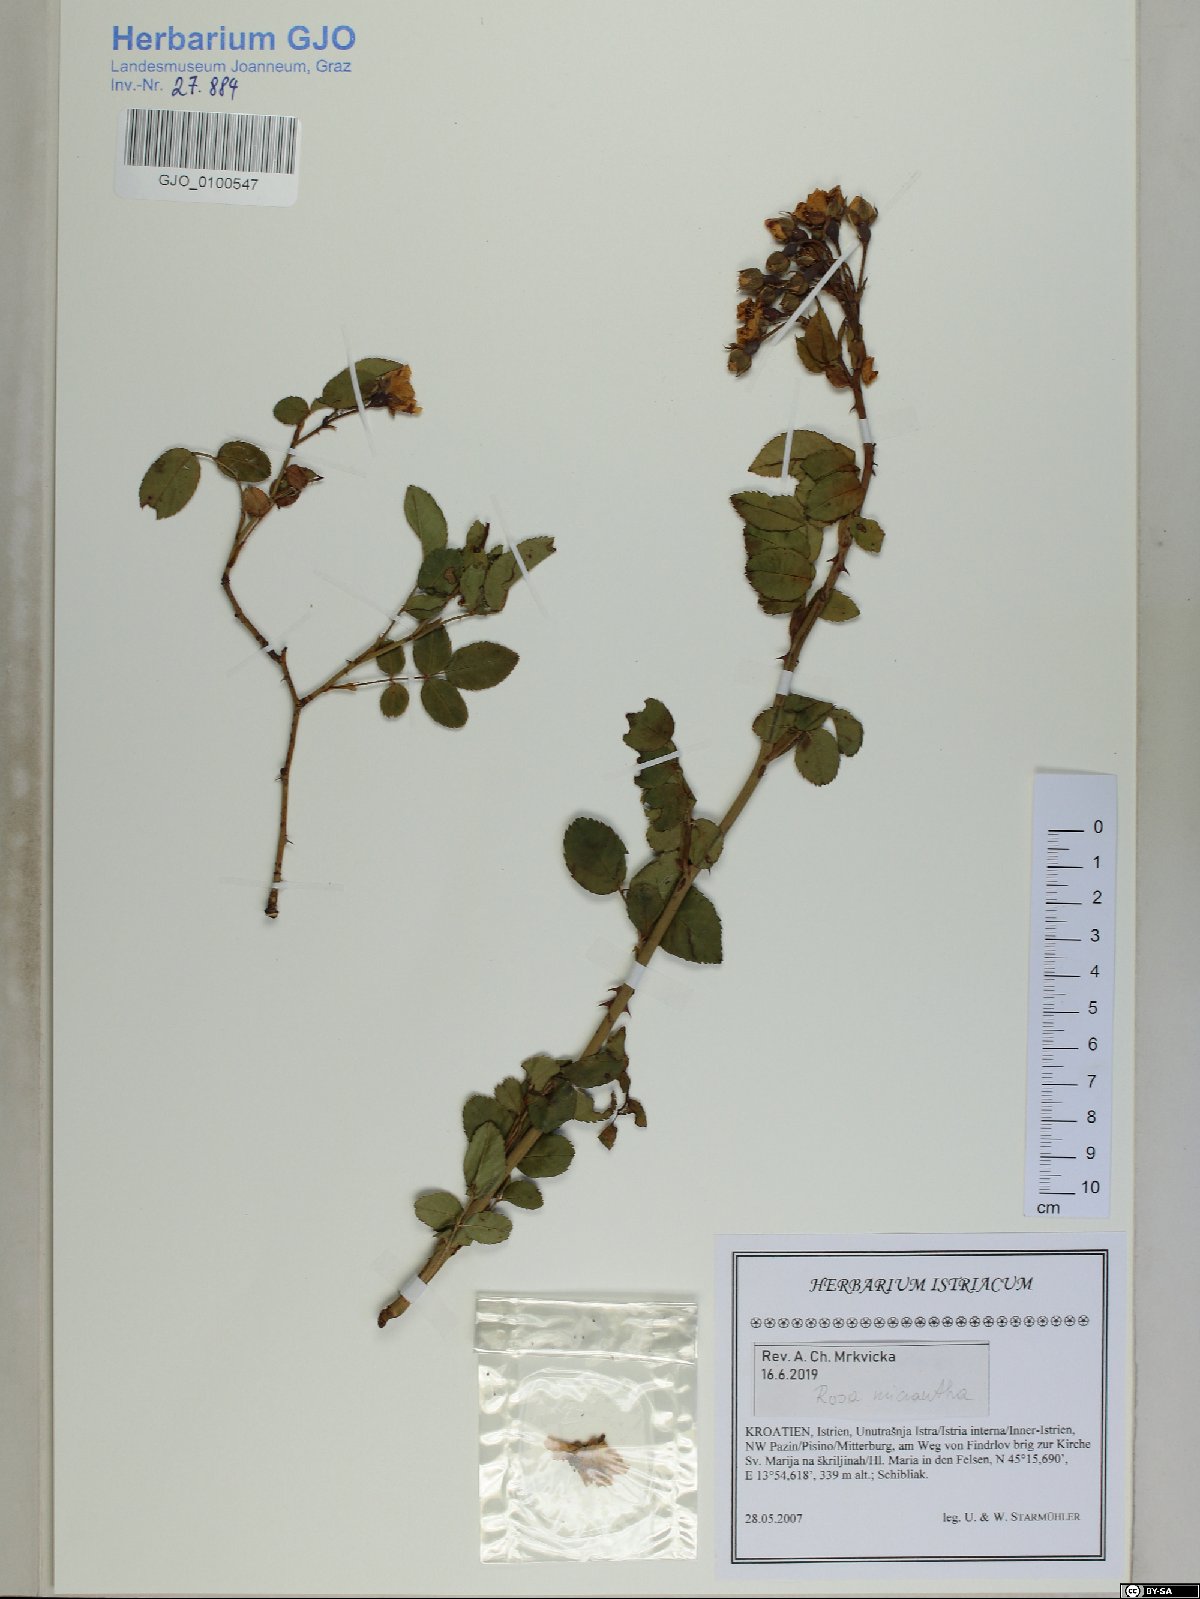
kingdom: Plantae
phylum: Tracheophyta
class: Magnoliopsida
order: Rosales
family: Rosaceae
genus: Rosa
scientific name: Rosa micrantha
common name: Small-flowered sweet-briar
